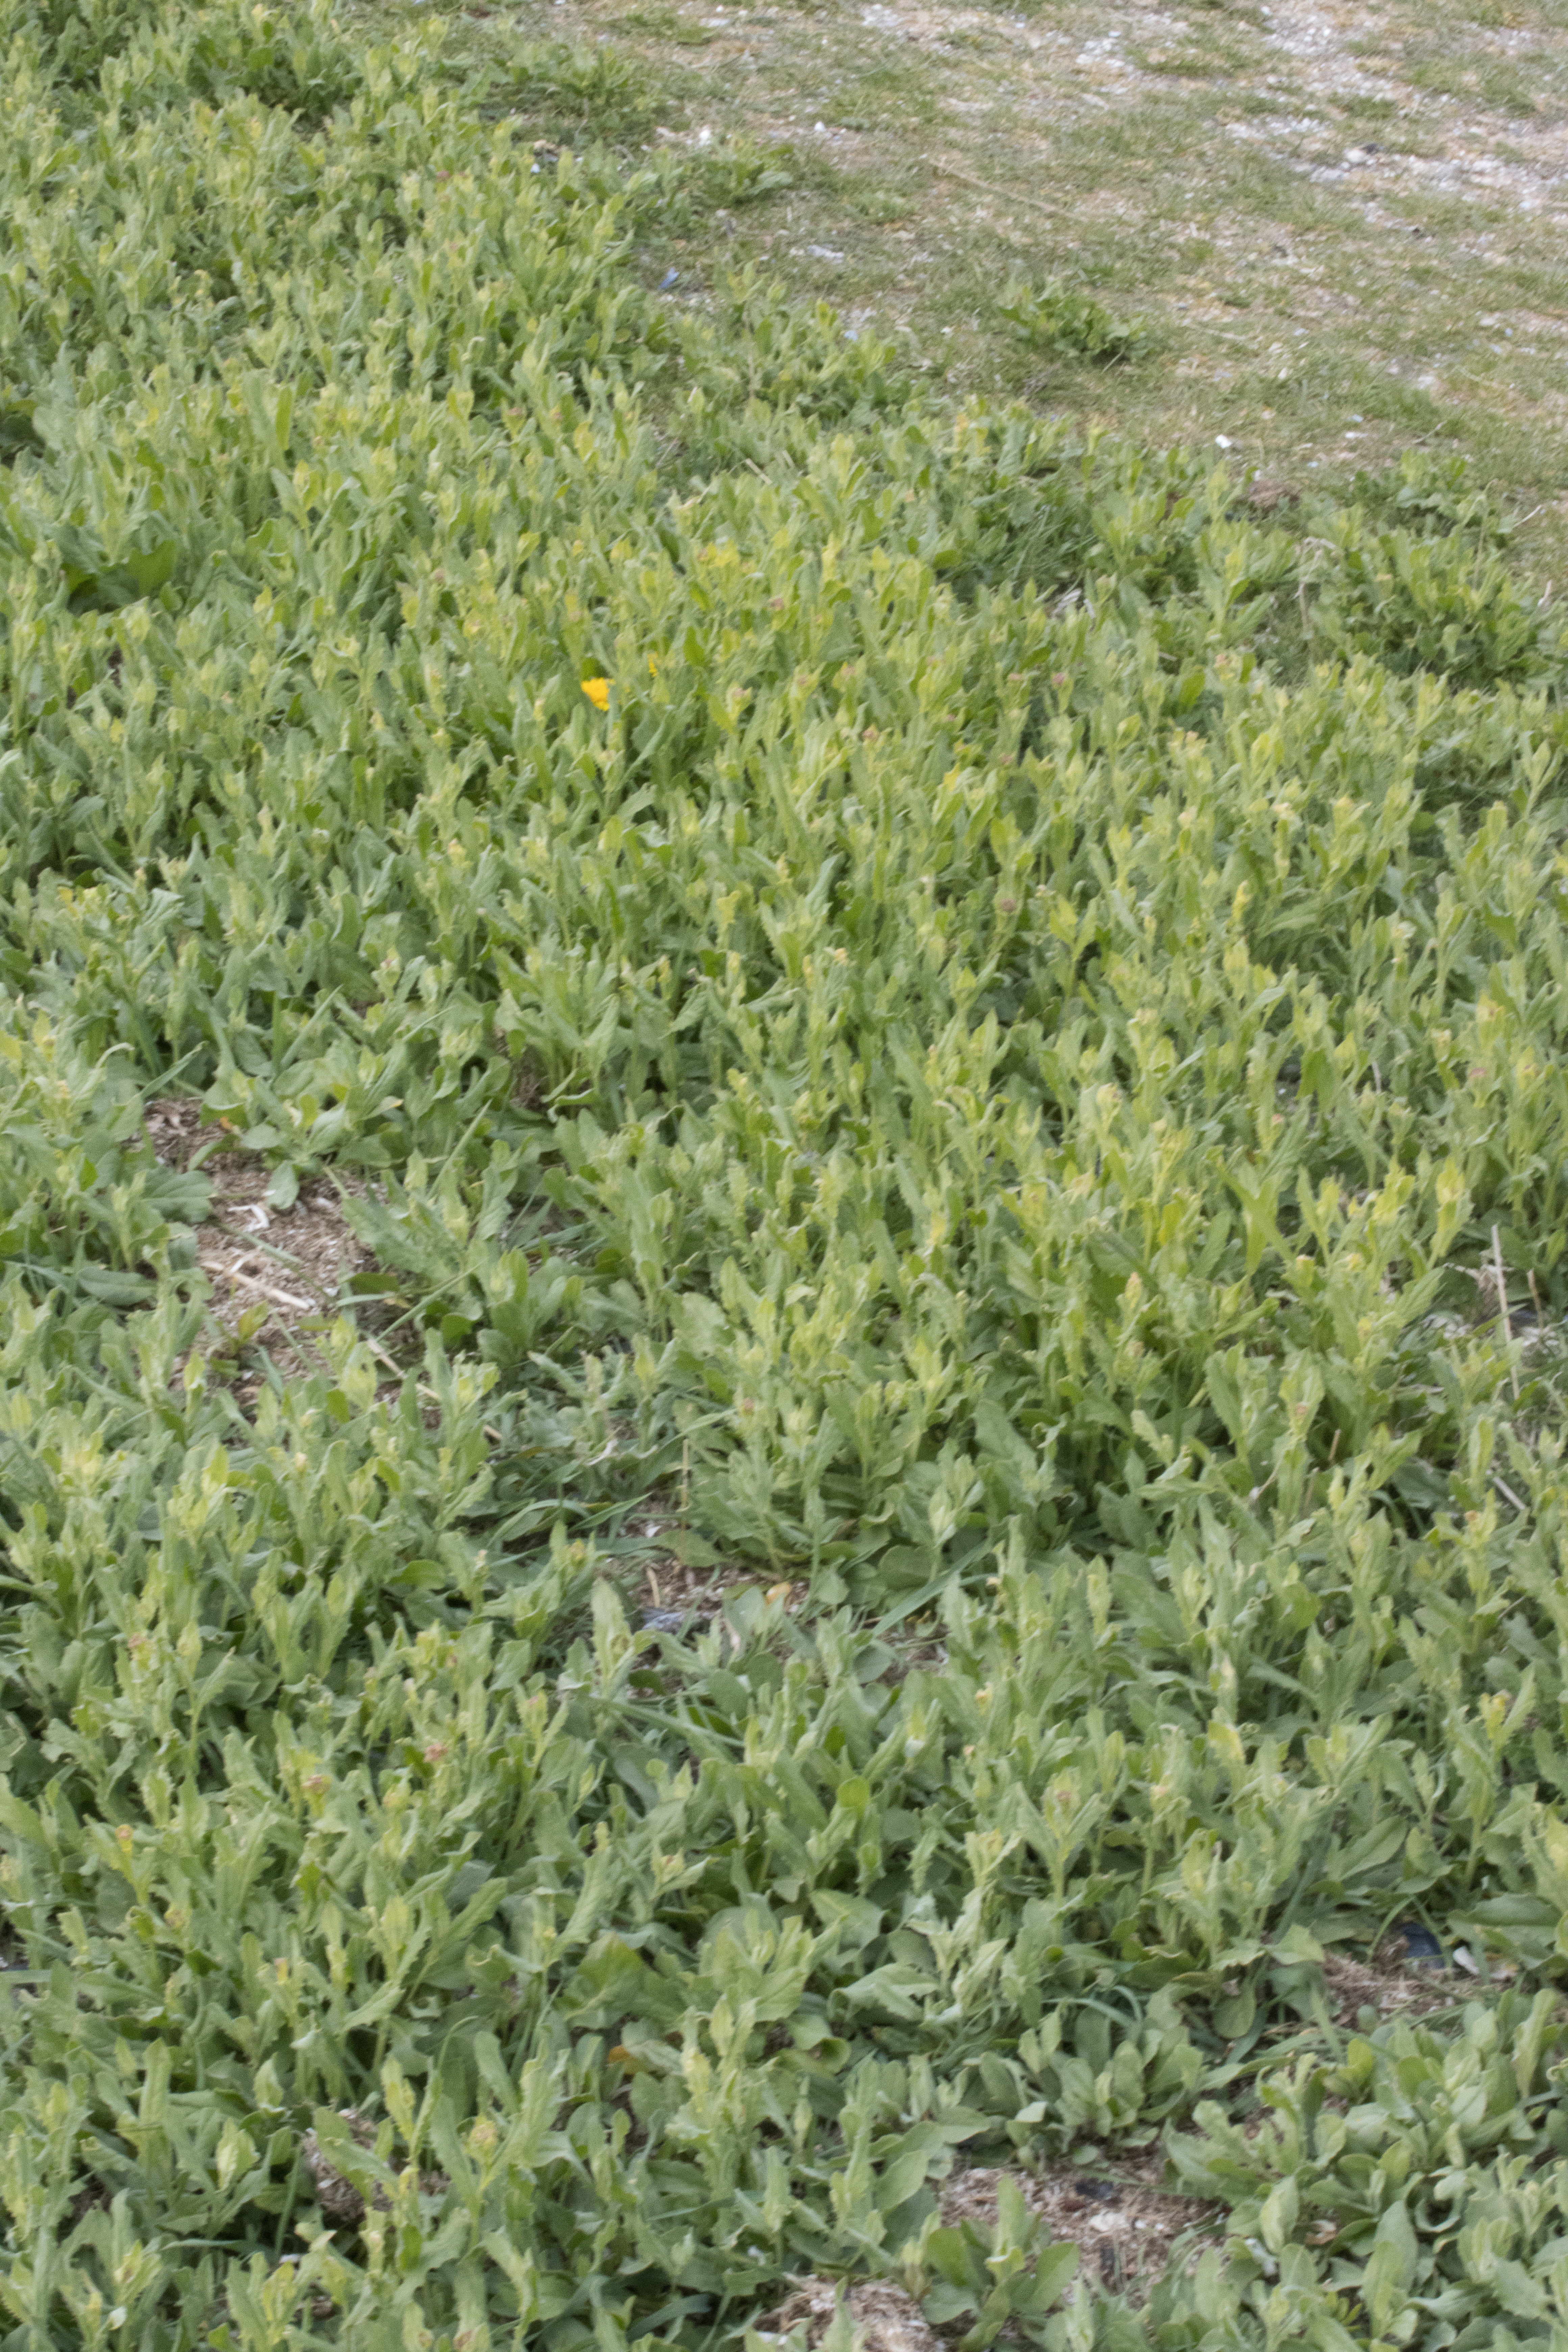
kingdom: Plantae
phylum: Tracheophyta
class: Magnoliopsida
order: Brassicales
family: Brassicaceae
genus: Lepidium
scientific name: Lepidium draba
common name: Hjerte-karse
